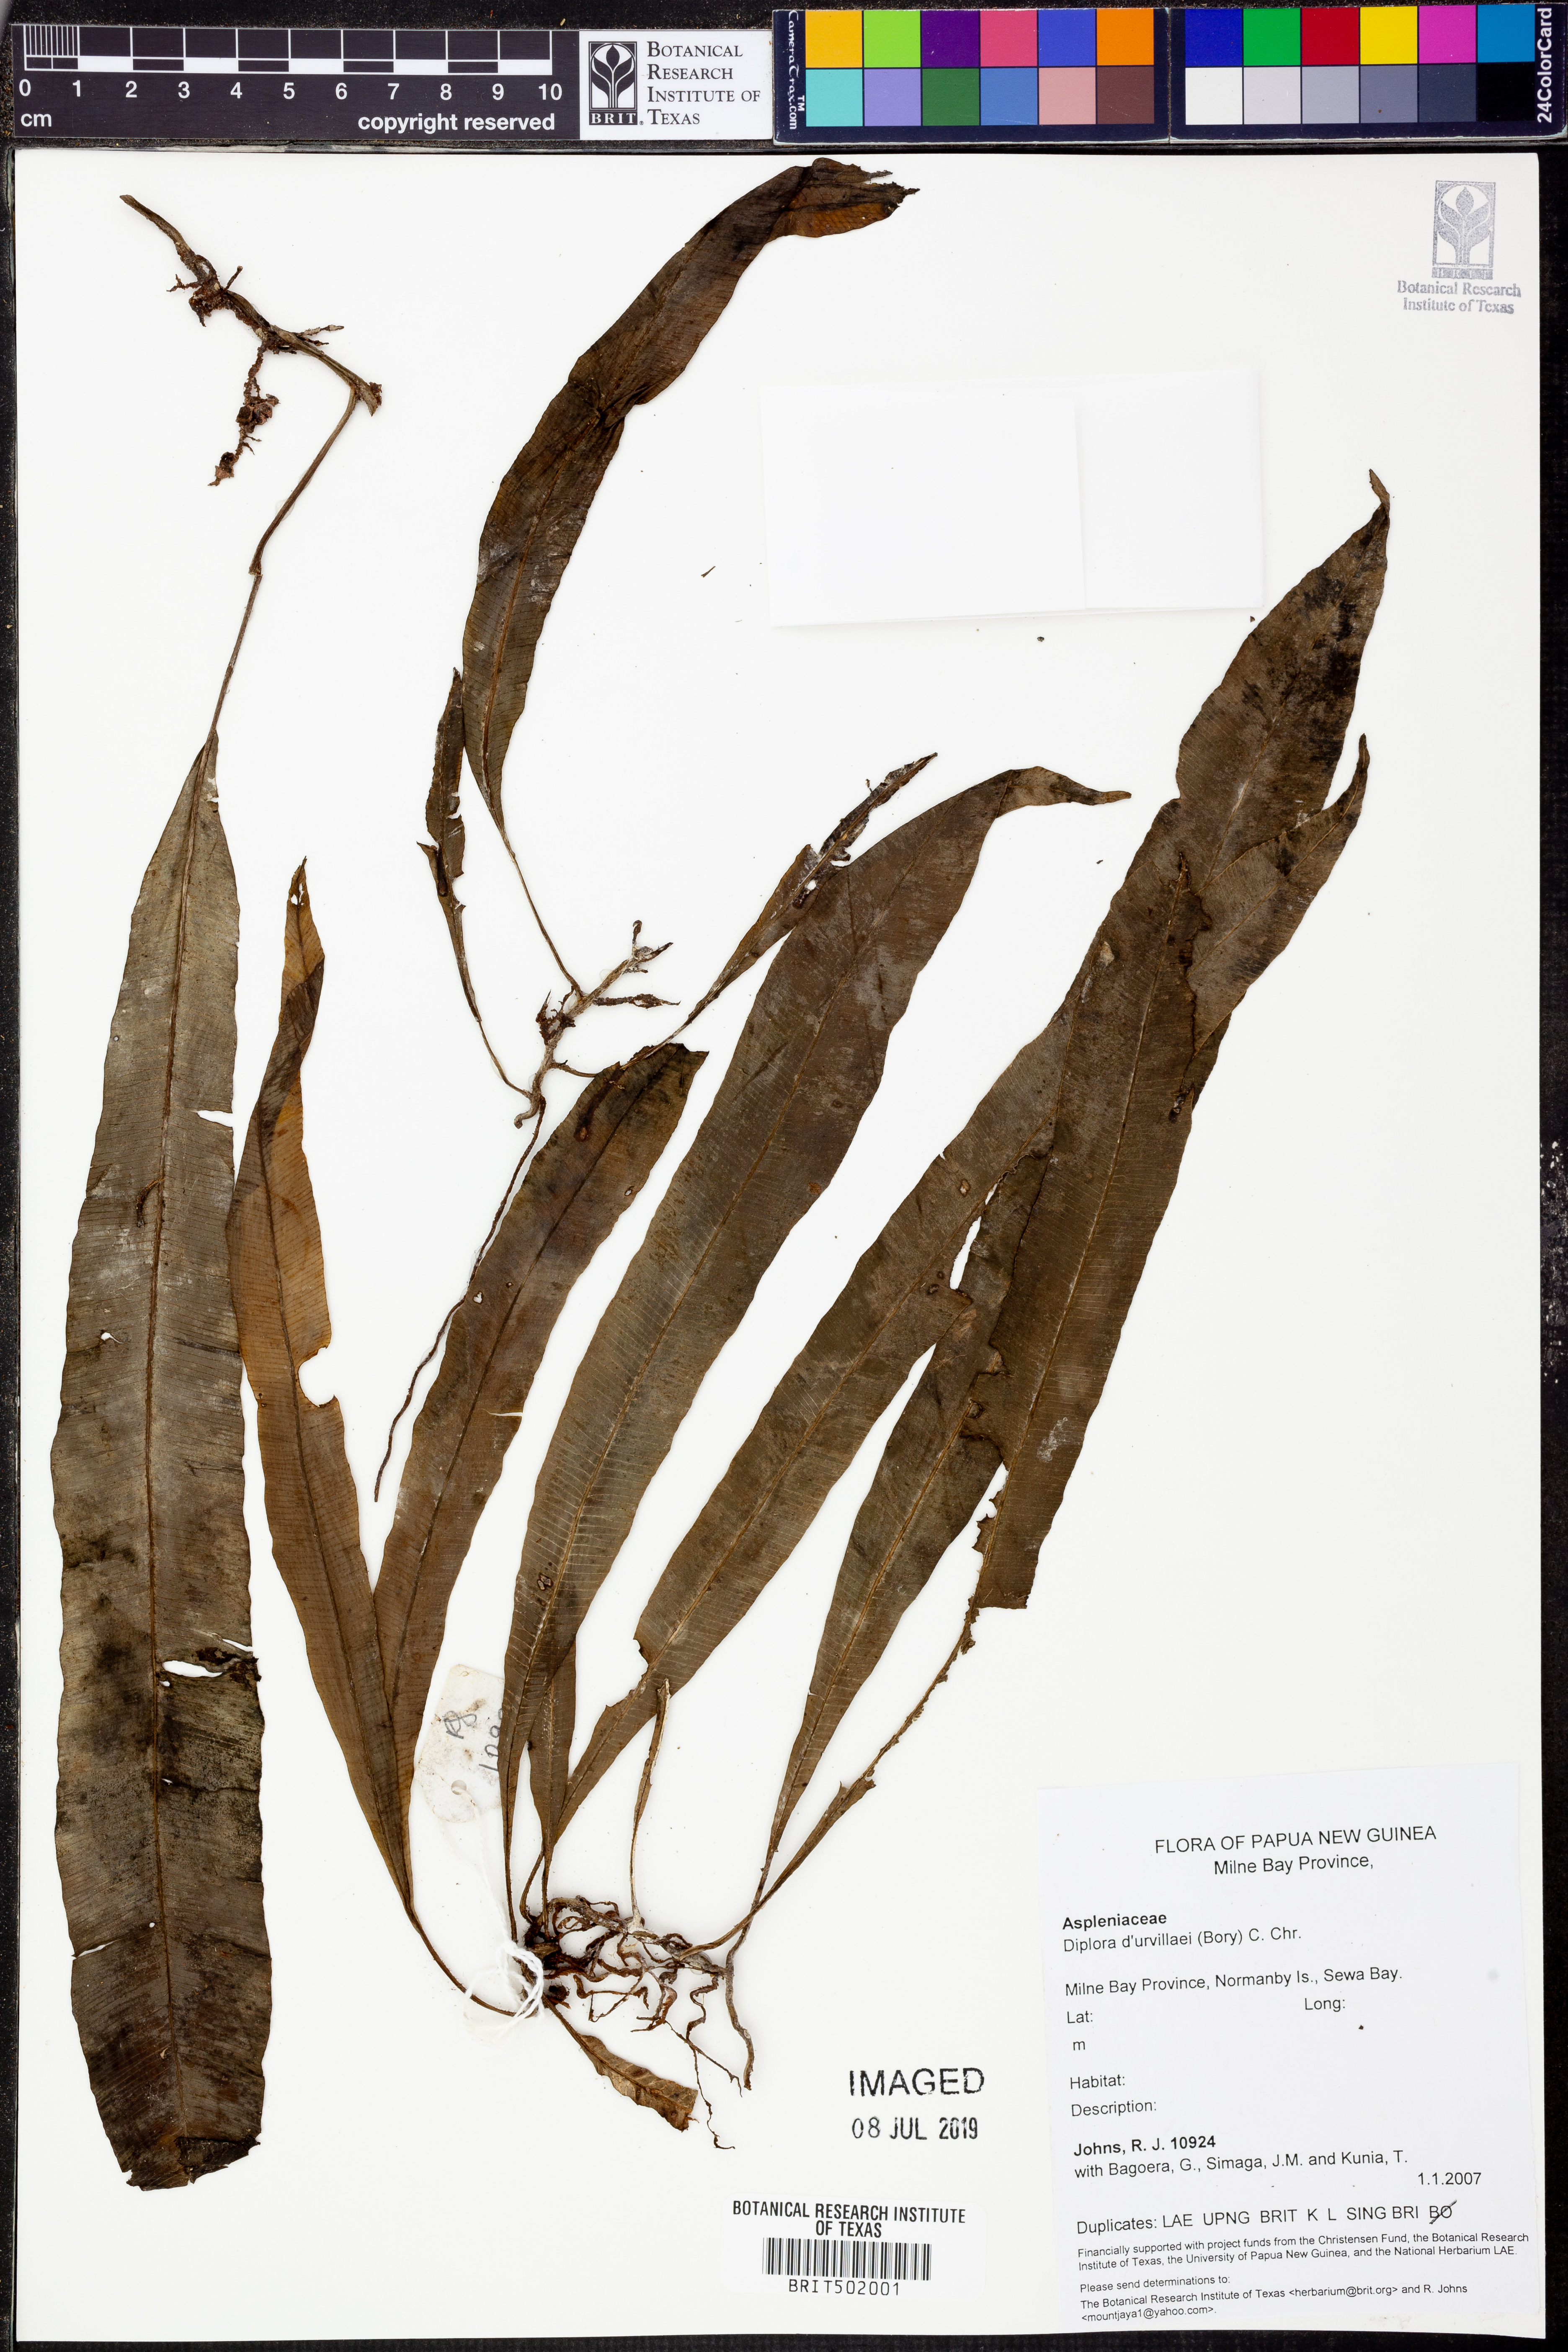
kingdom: Plantae
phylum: Tracheophyta
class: Polypodiopsida
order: Polypodiales
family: Aspleniaceae
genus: Asplenium
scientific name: Asplenium Diplora durvillaei
